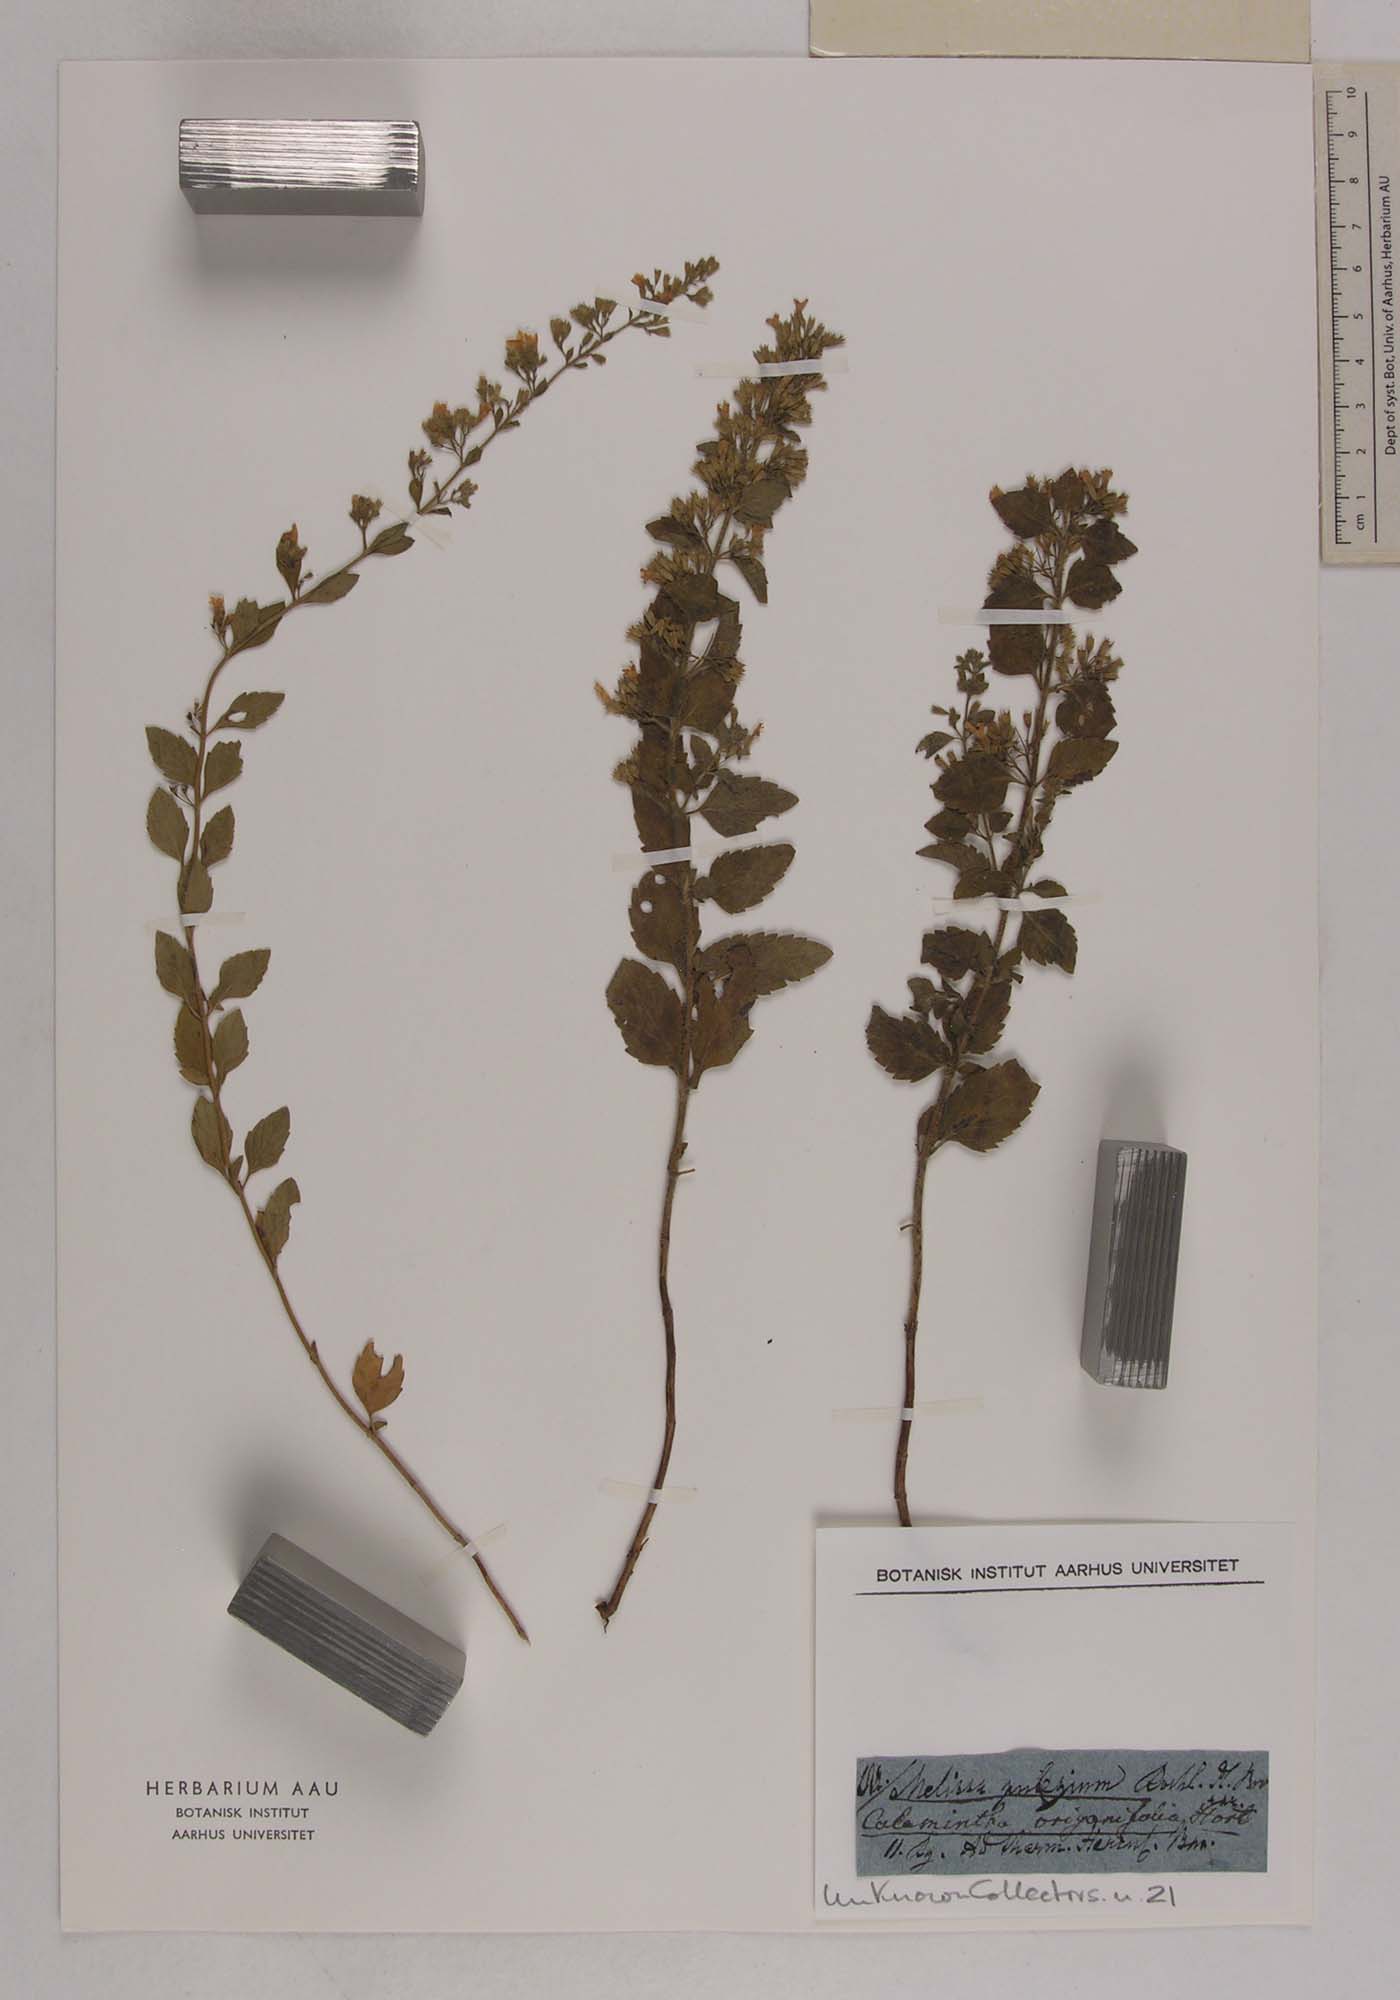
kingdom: Plantae
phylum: Tracheophyta
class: Magnoliopsida
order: Lamiales
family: Lamiaceae
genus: Micromeria
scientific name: Micromeria longipedunculata
